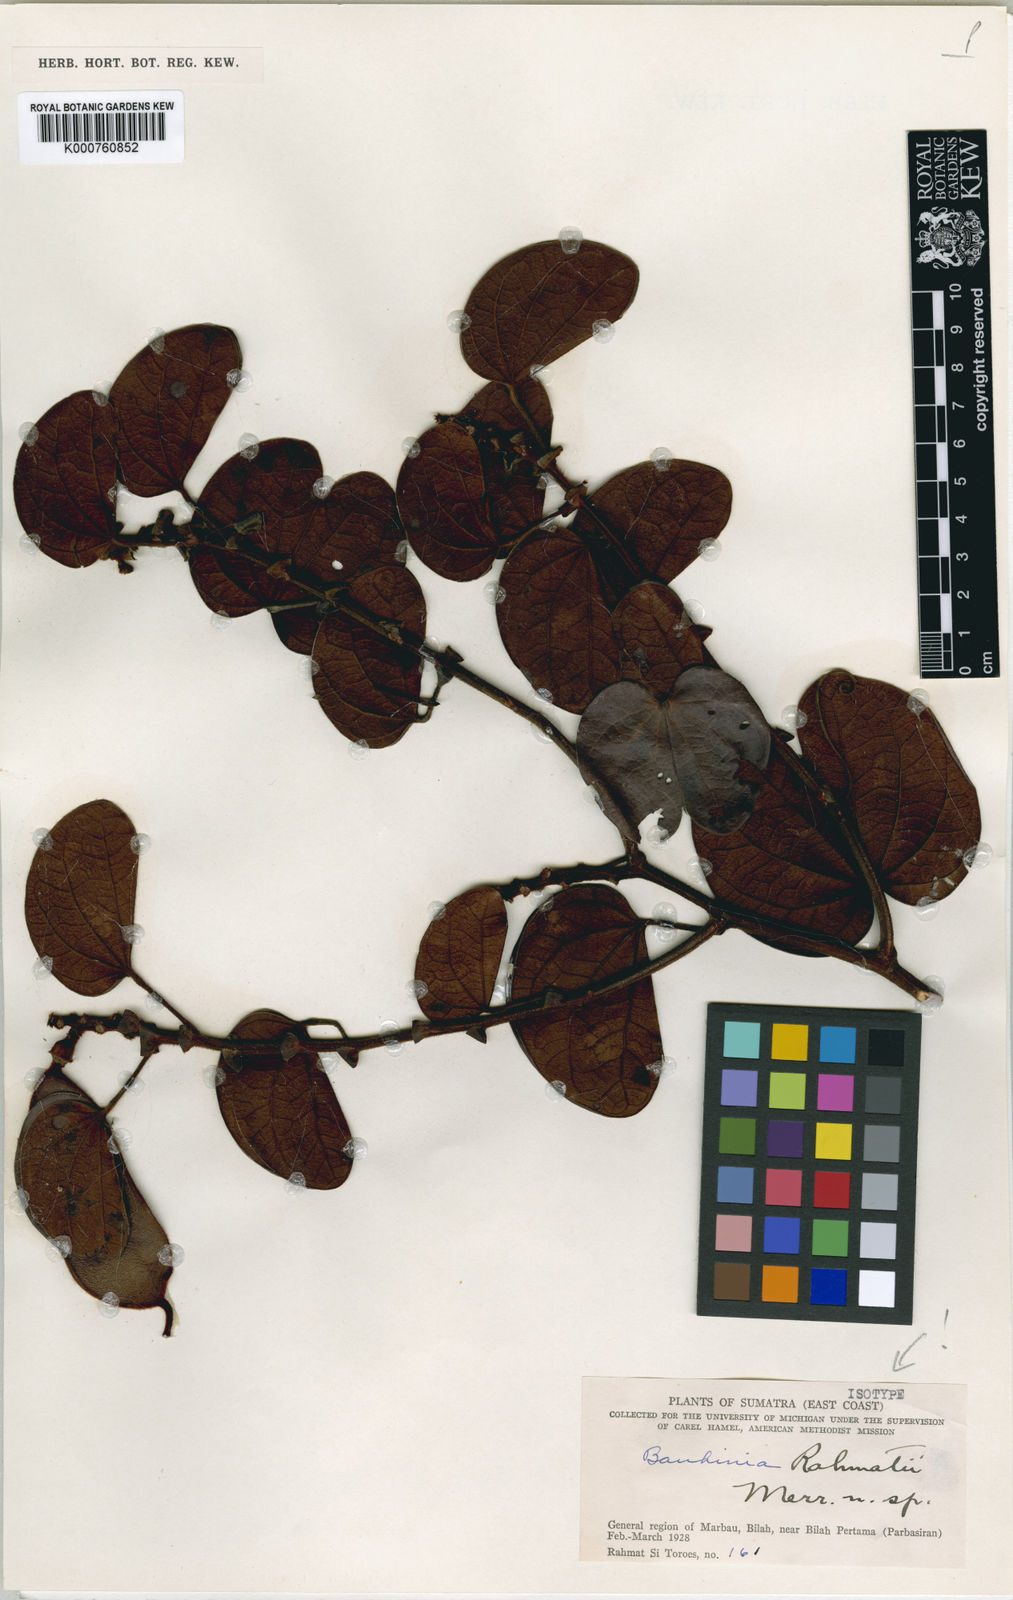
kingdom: Plantae
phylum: Tracheophyta
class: Magnoliopsida
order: Fabales
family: Fabaceae
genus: Phanera
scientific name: Phanera ridleyi
